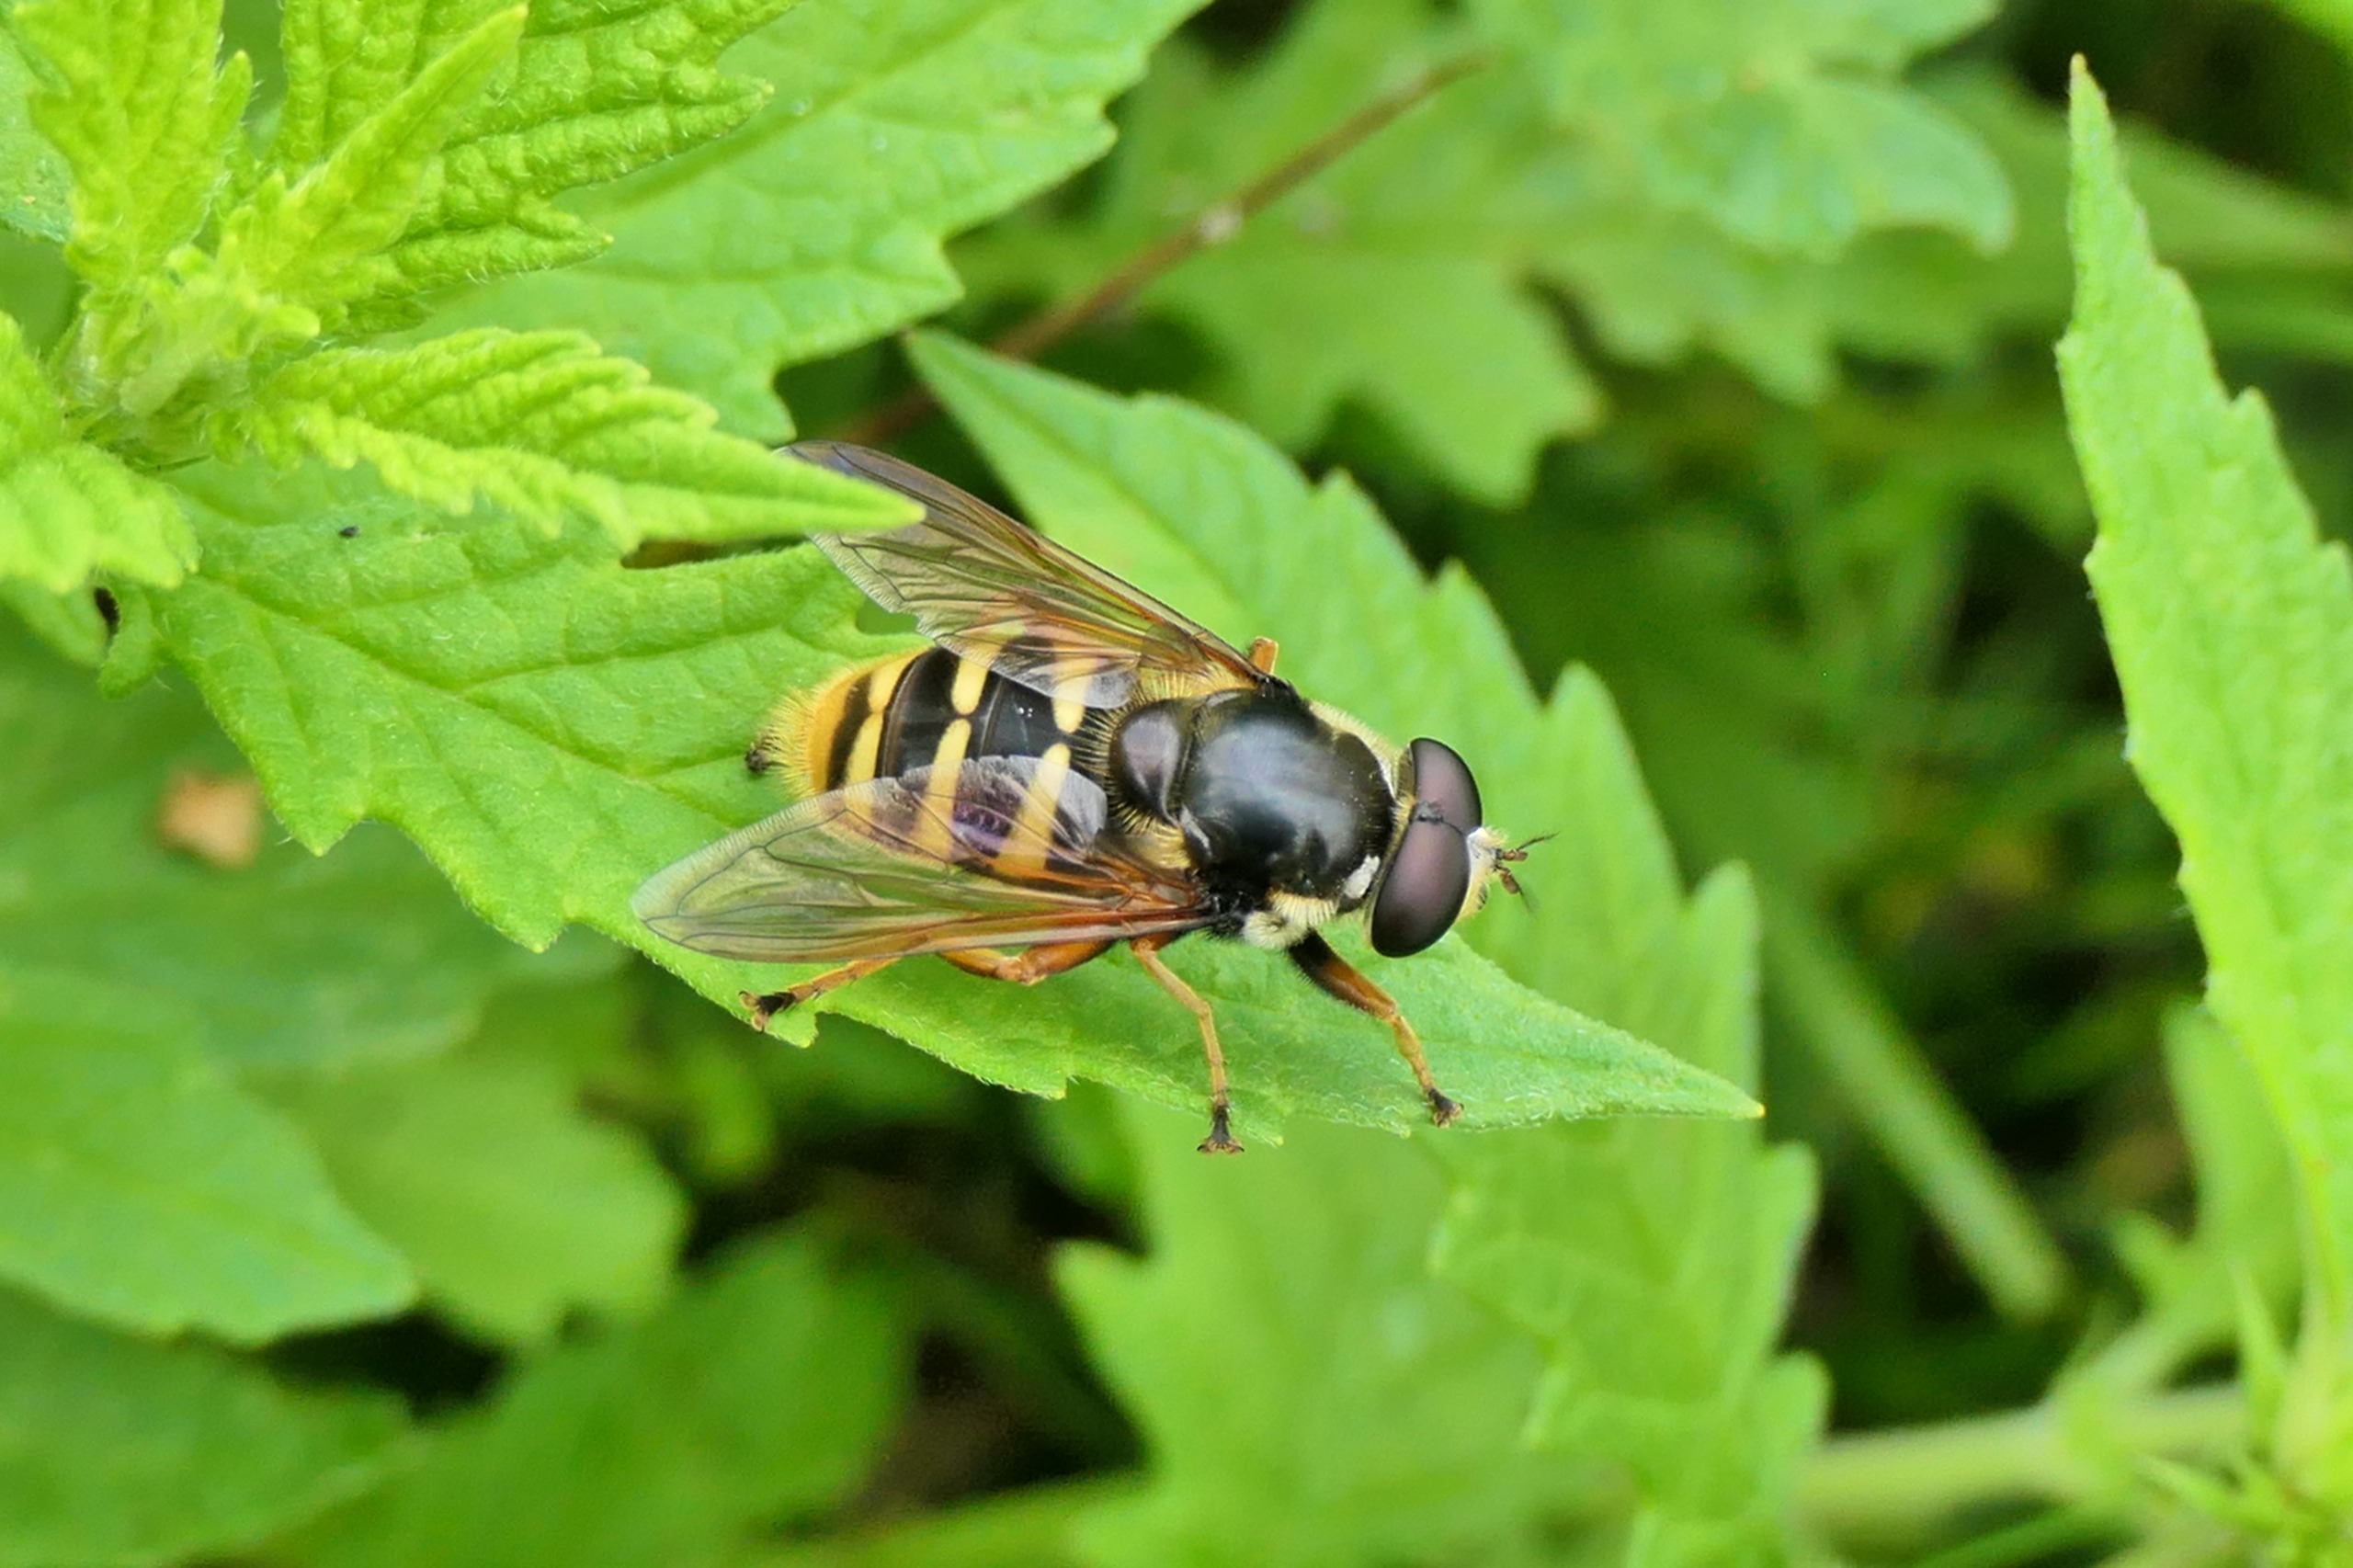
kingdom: Animalia
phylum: Arthropoda
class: Insecta
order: Diptera
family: Syrphidae
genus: Sericomyia
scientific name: Sericomyia silentis
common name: Tørve-silkesvirreflue
